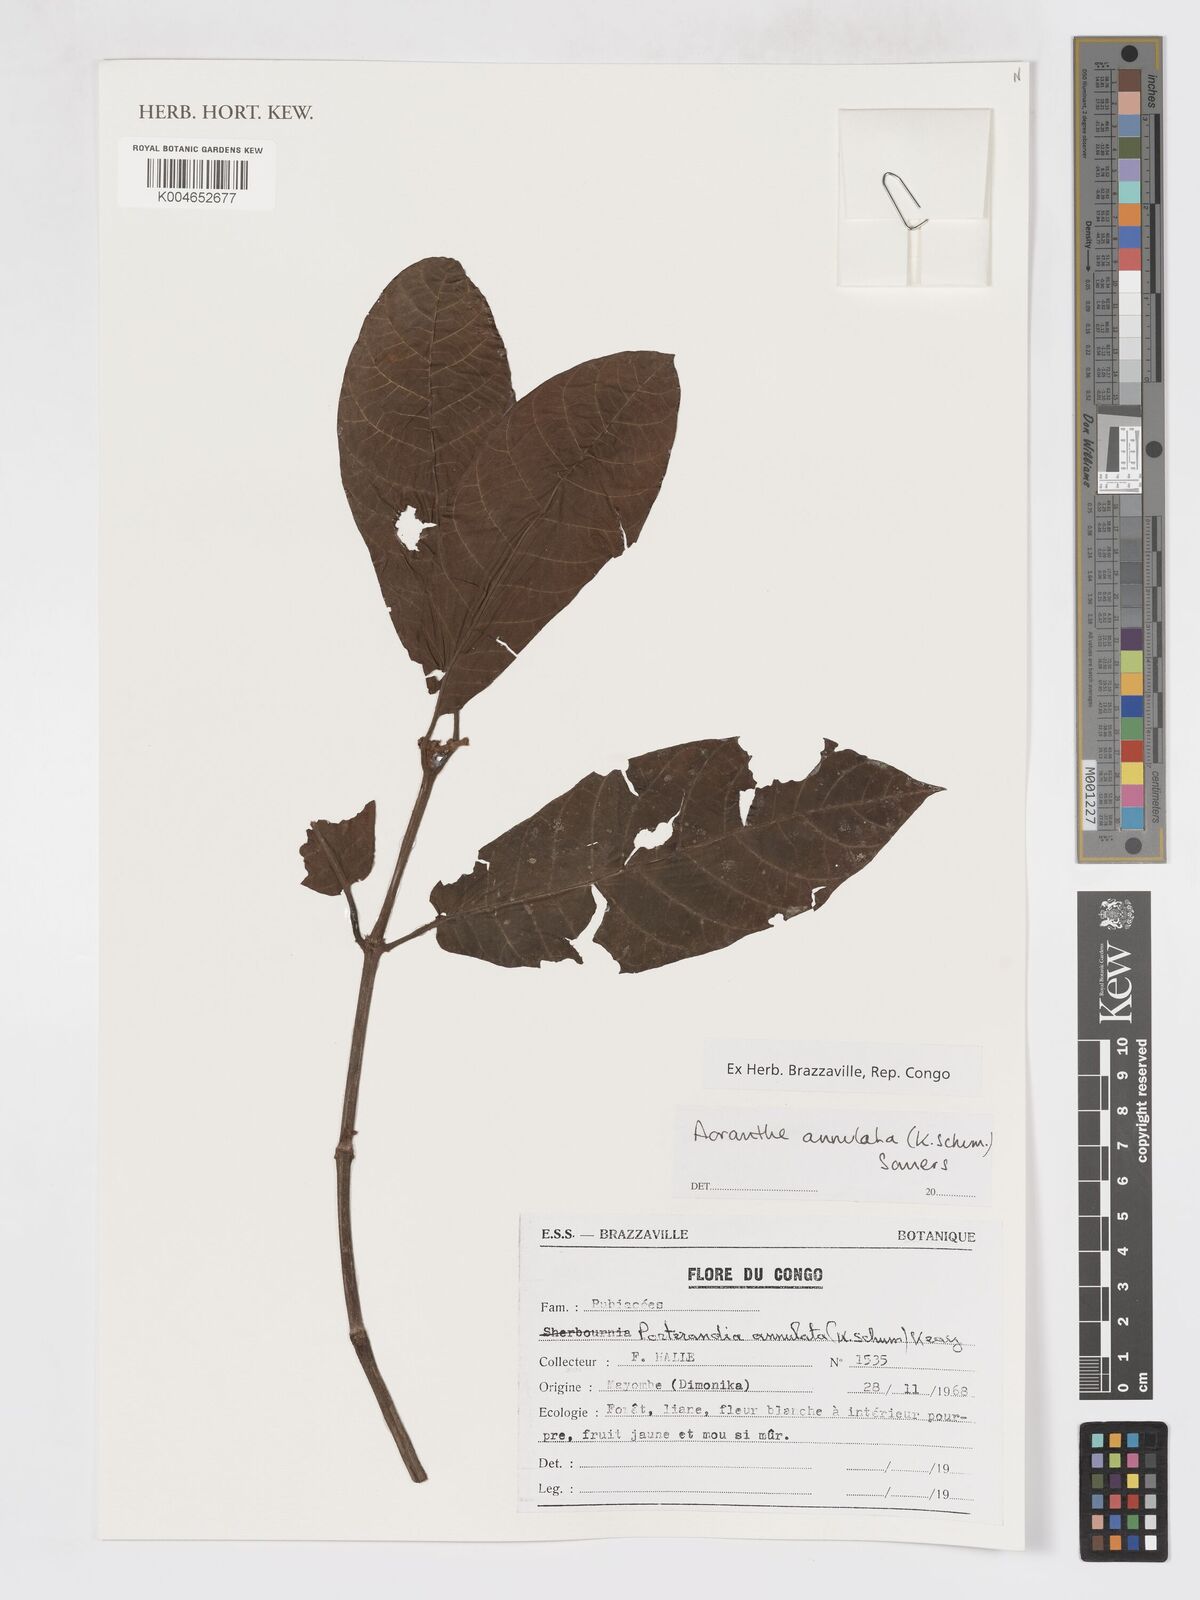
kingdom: Plantae
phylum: Tracheophyta
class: Magnoliopsida
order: Gentianales
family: Rubiaceae
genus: Aoranthe
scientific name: Aoranthe annulata
